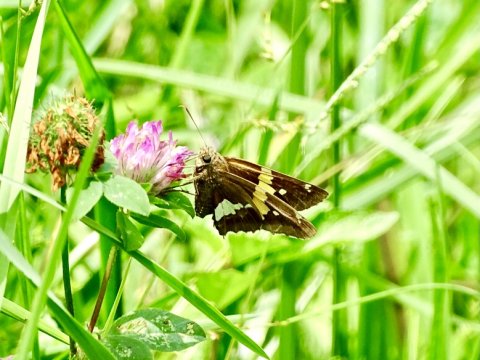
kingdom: Animalia
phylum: Arthropoda
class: Insecta
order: Lepidoptera
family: Hesperiidae
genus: Epargyreus
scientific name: Epargyreus clarus
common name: Silver-spotted Skipper
